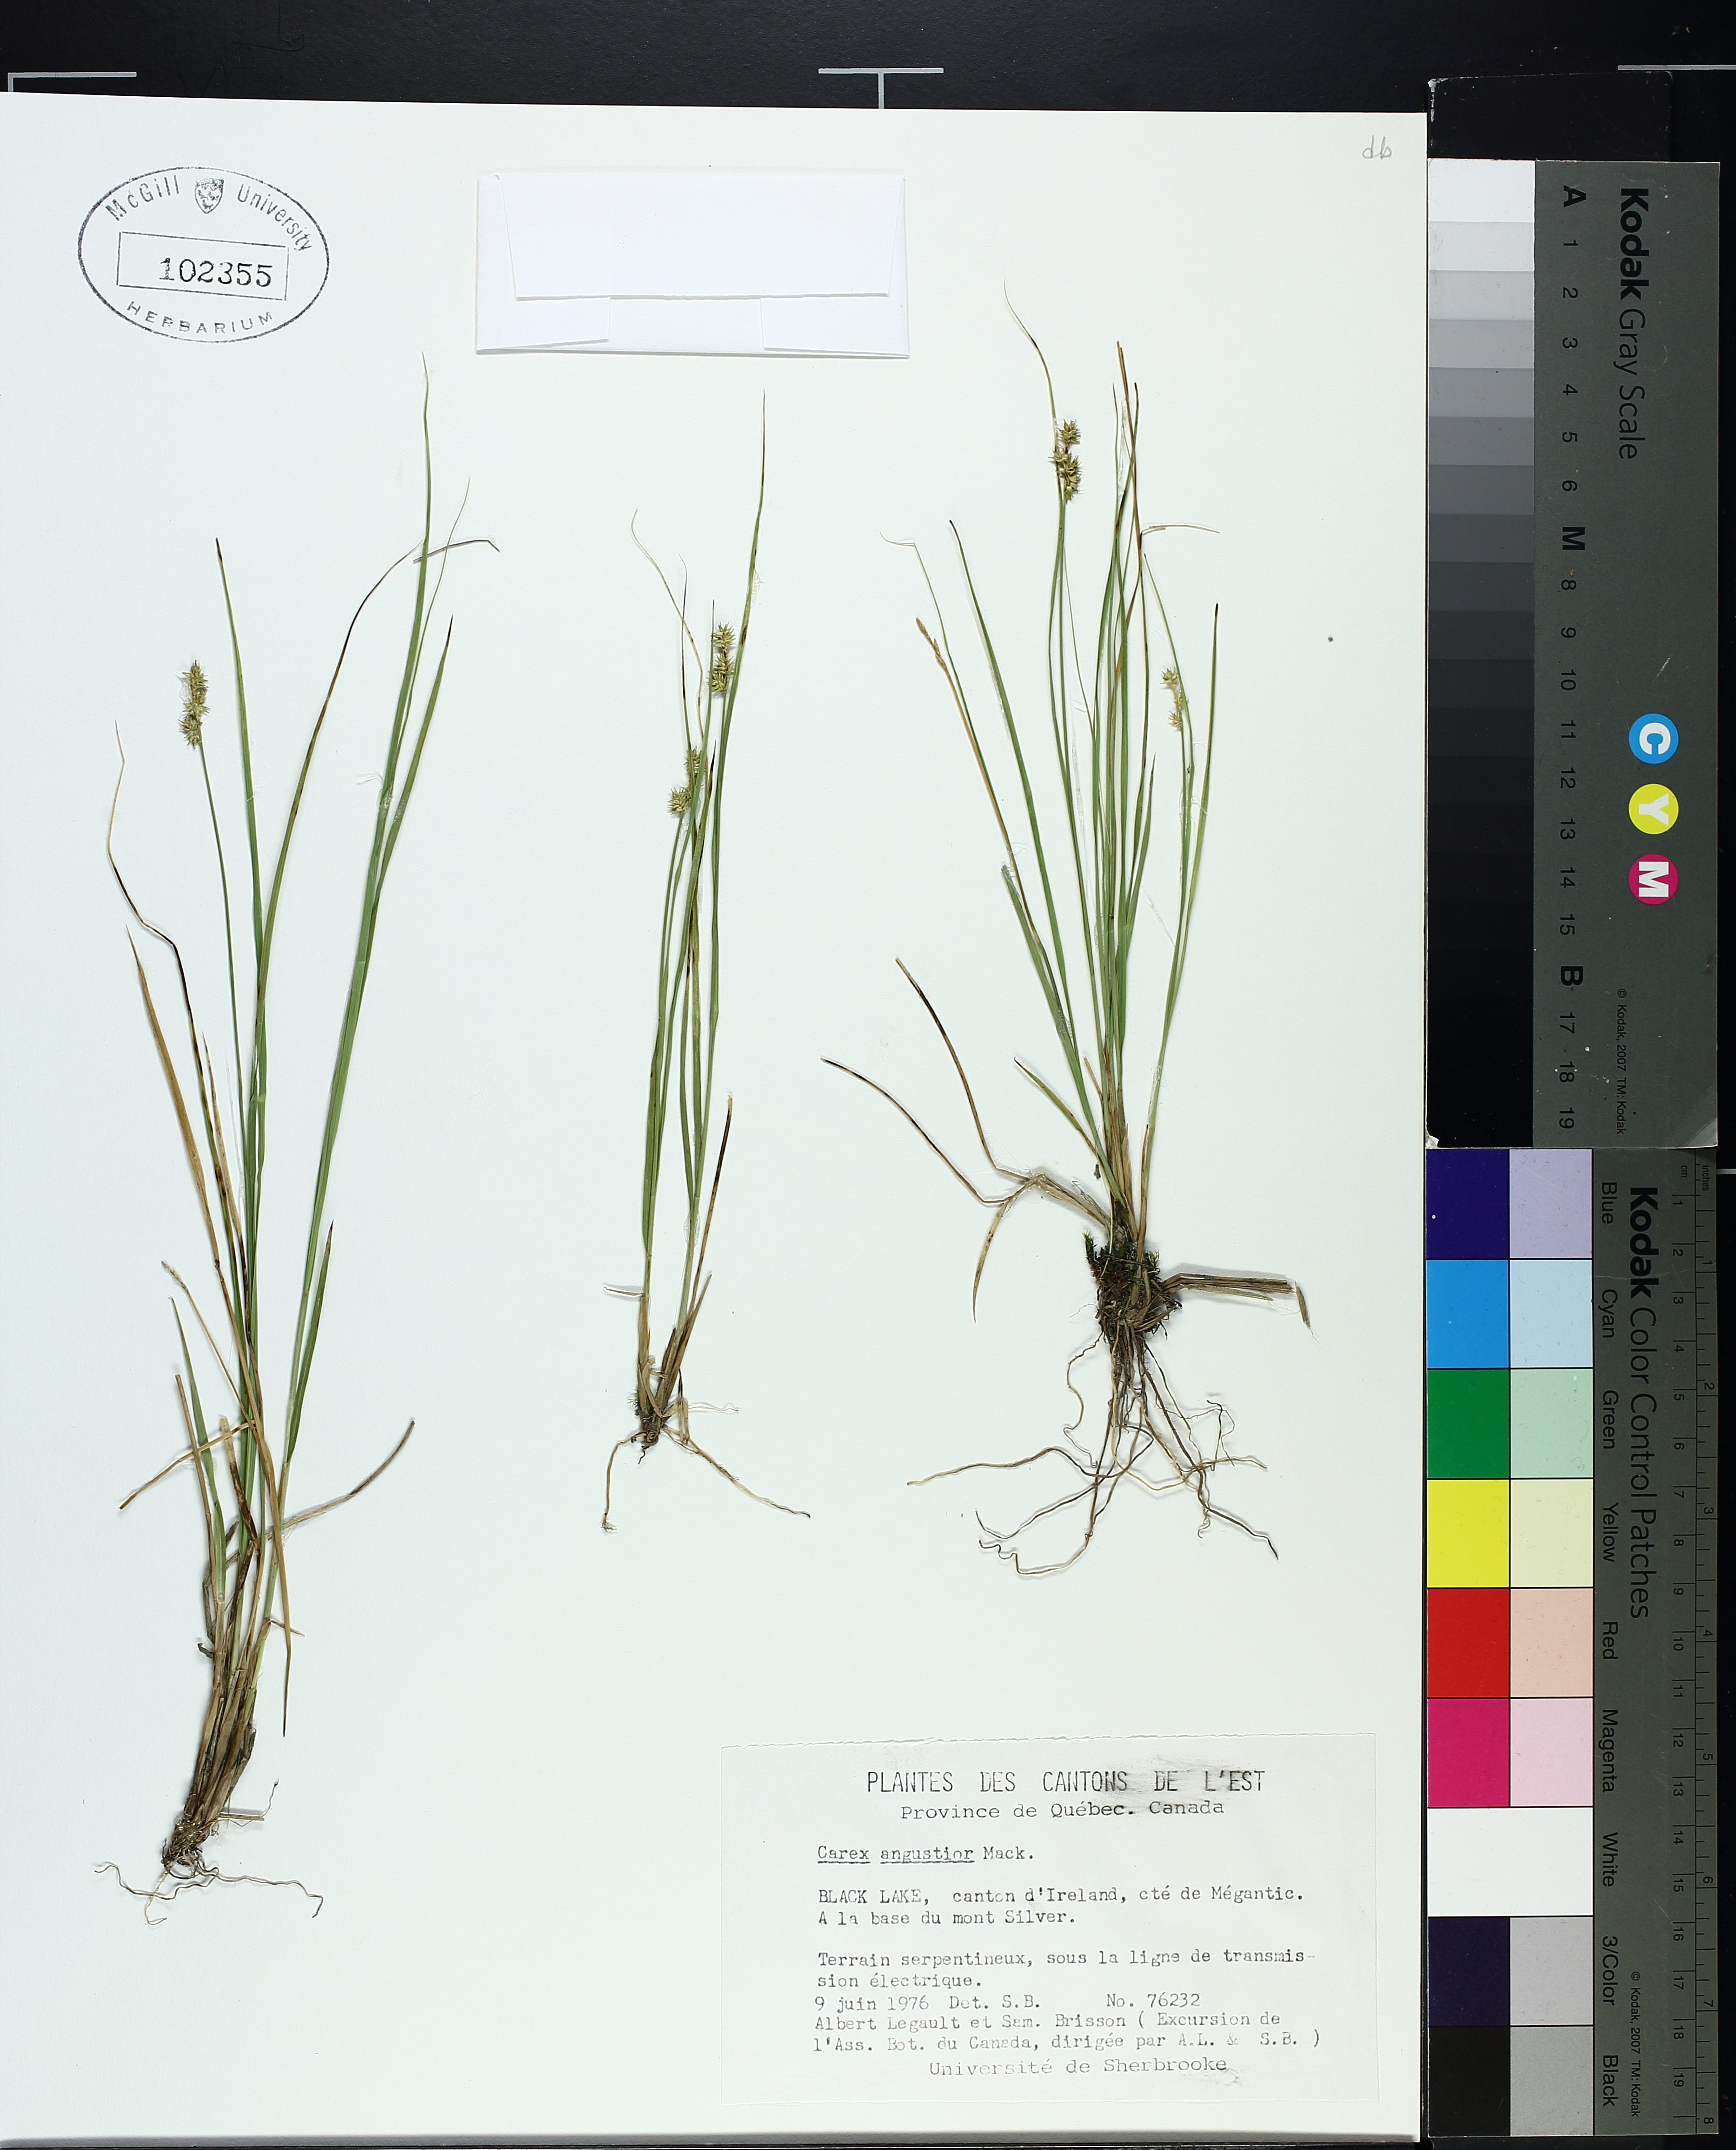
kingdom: Plantae
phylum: Tracheophyta
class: Liliopsida
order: Poales
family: Cyperaceae
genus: Carex
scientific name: Carex echinata
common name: Star sedge
